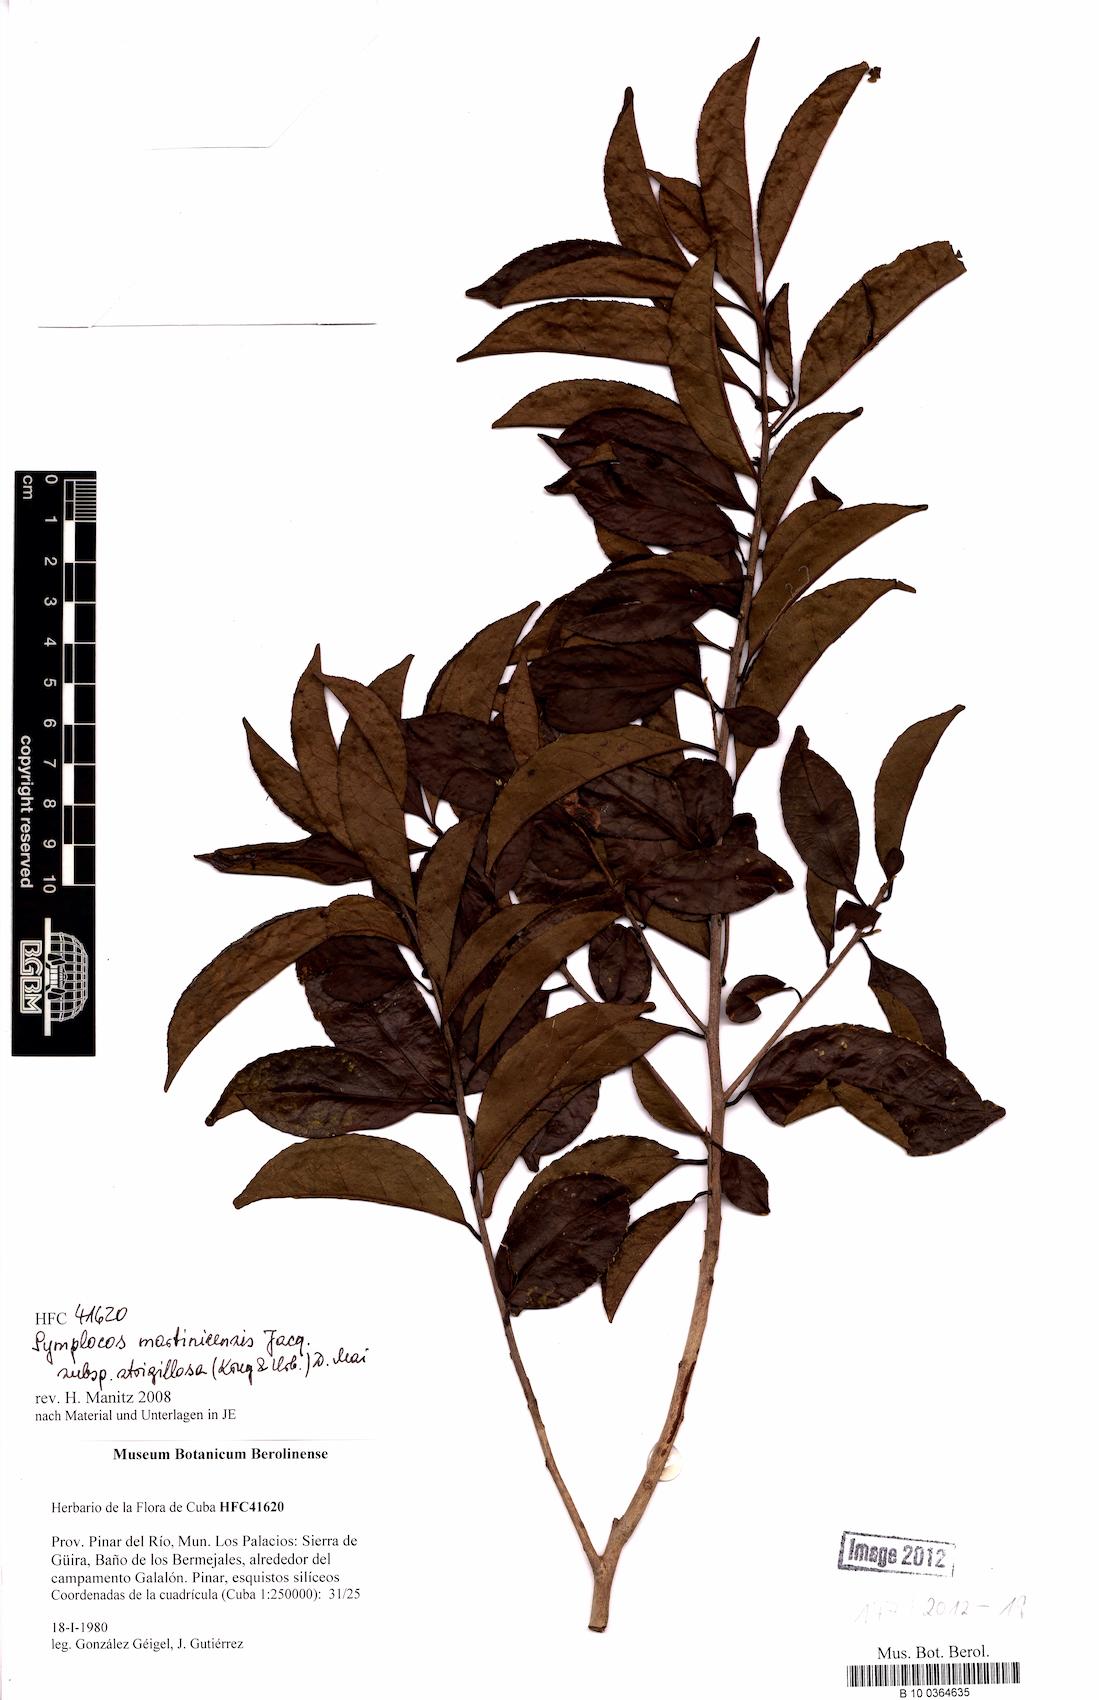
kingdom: Plantae
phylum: Tracheophyta
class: Magnoliopsida
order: Ericales
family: Symplocaceae
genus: Symplocos
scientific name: Symplocos jurgensenii
